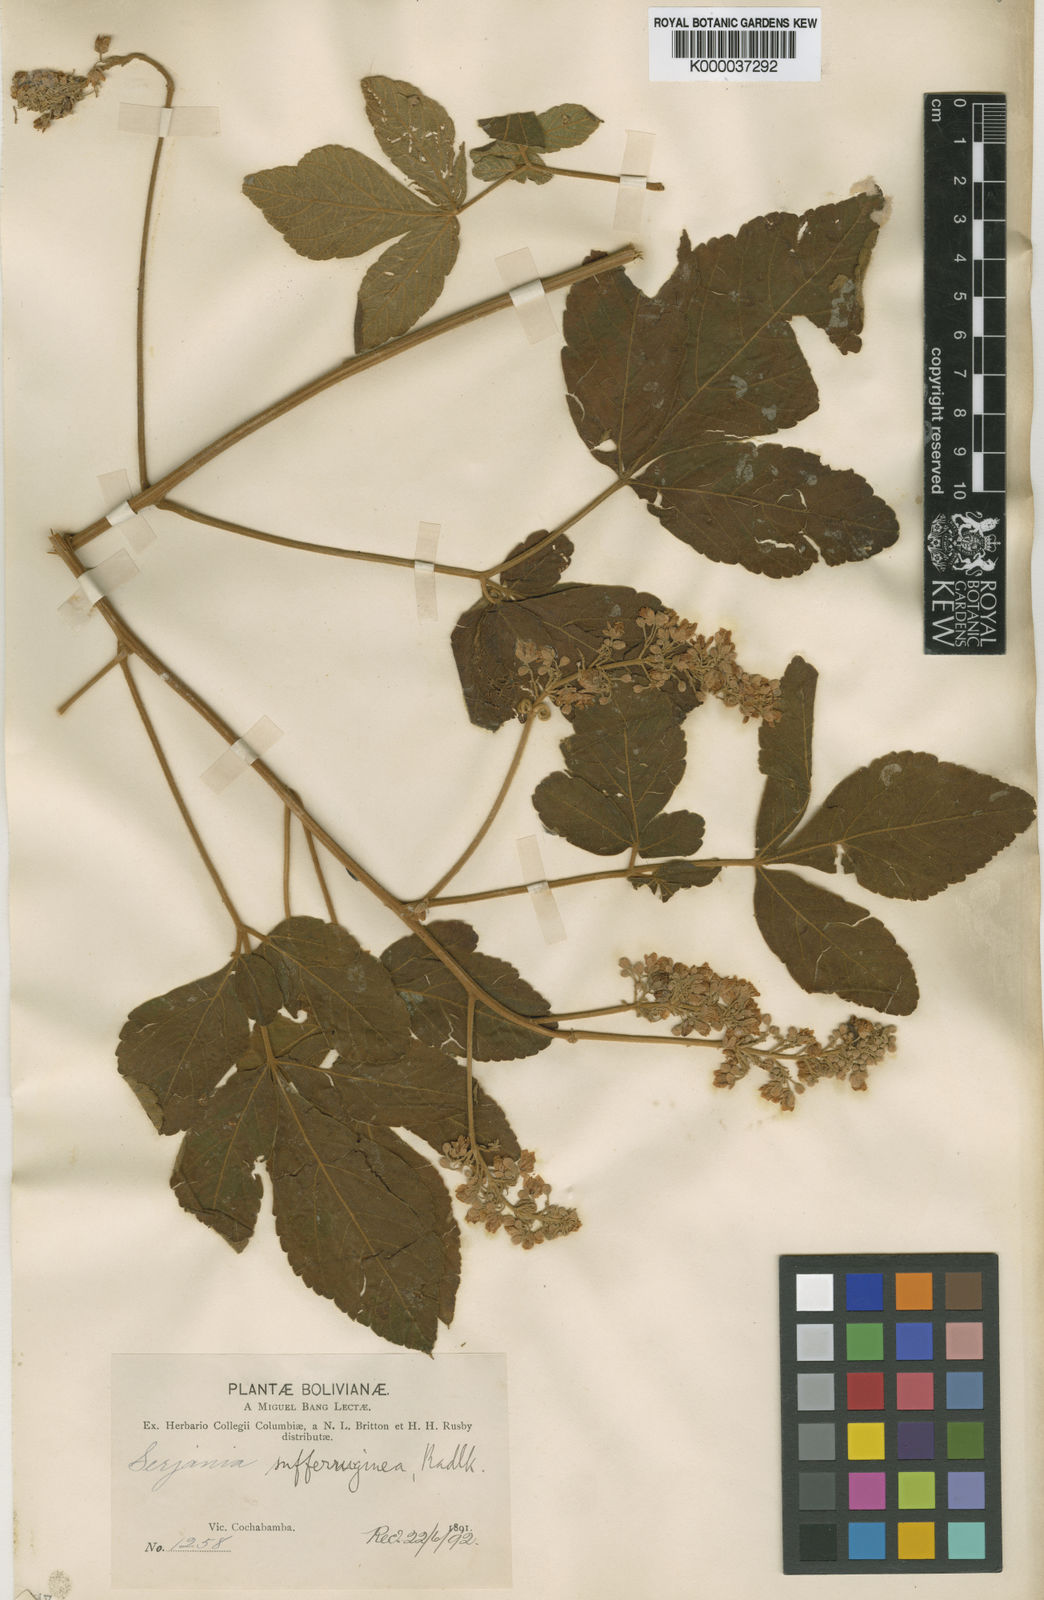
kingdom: Plantae
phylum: Tracheophyta
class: Magnoliopsida
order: Sapindales
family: Sapindaceae
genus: Serjania
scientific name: Serjania sufferruginea
